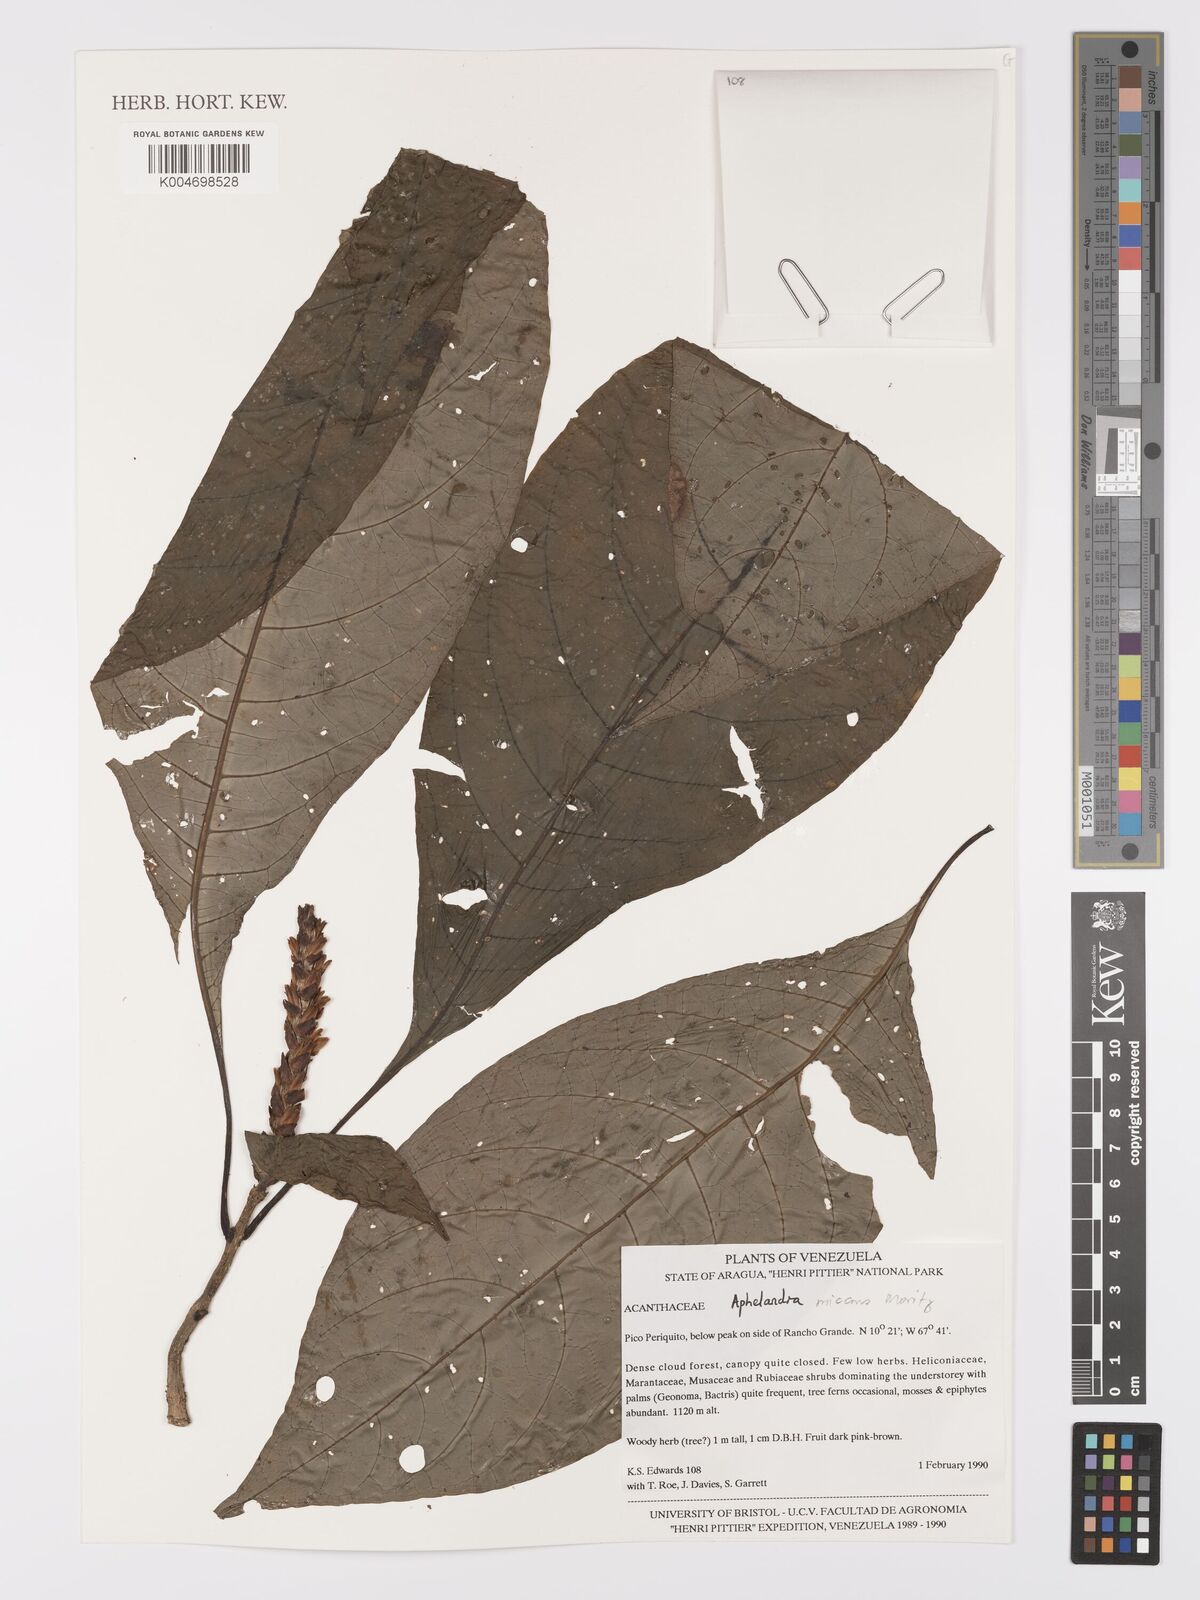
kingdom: Plantae
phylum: Tracheophyta
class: Magnoliopsida
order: Lamiales
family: Acanthaceae
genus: Aphelandra
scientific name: Aphelandra micans
